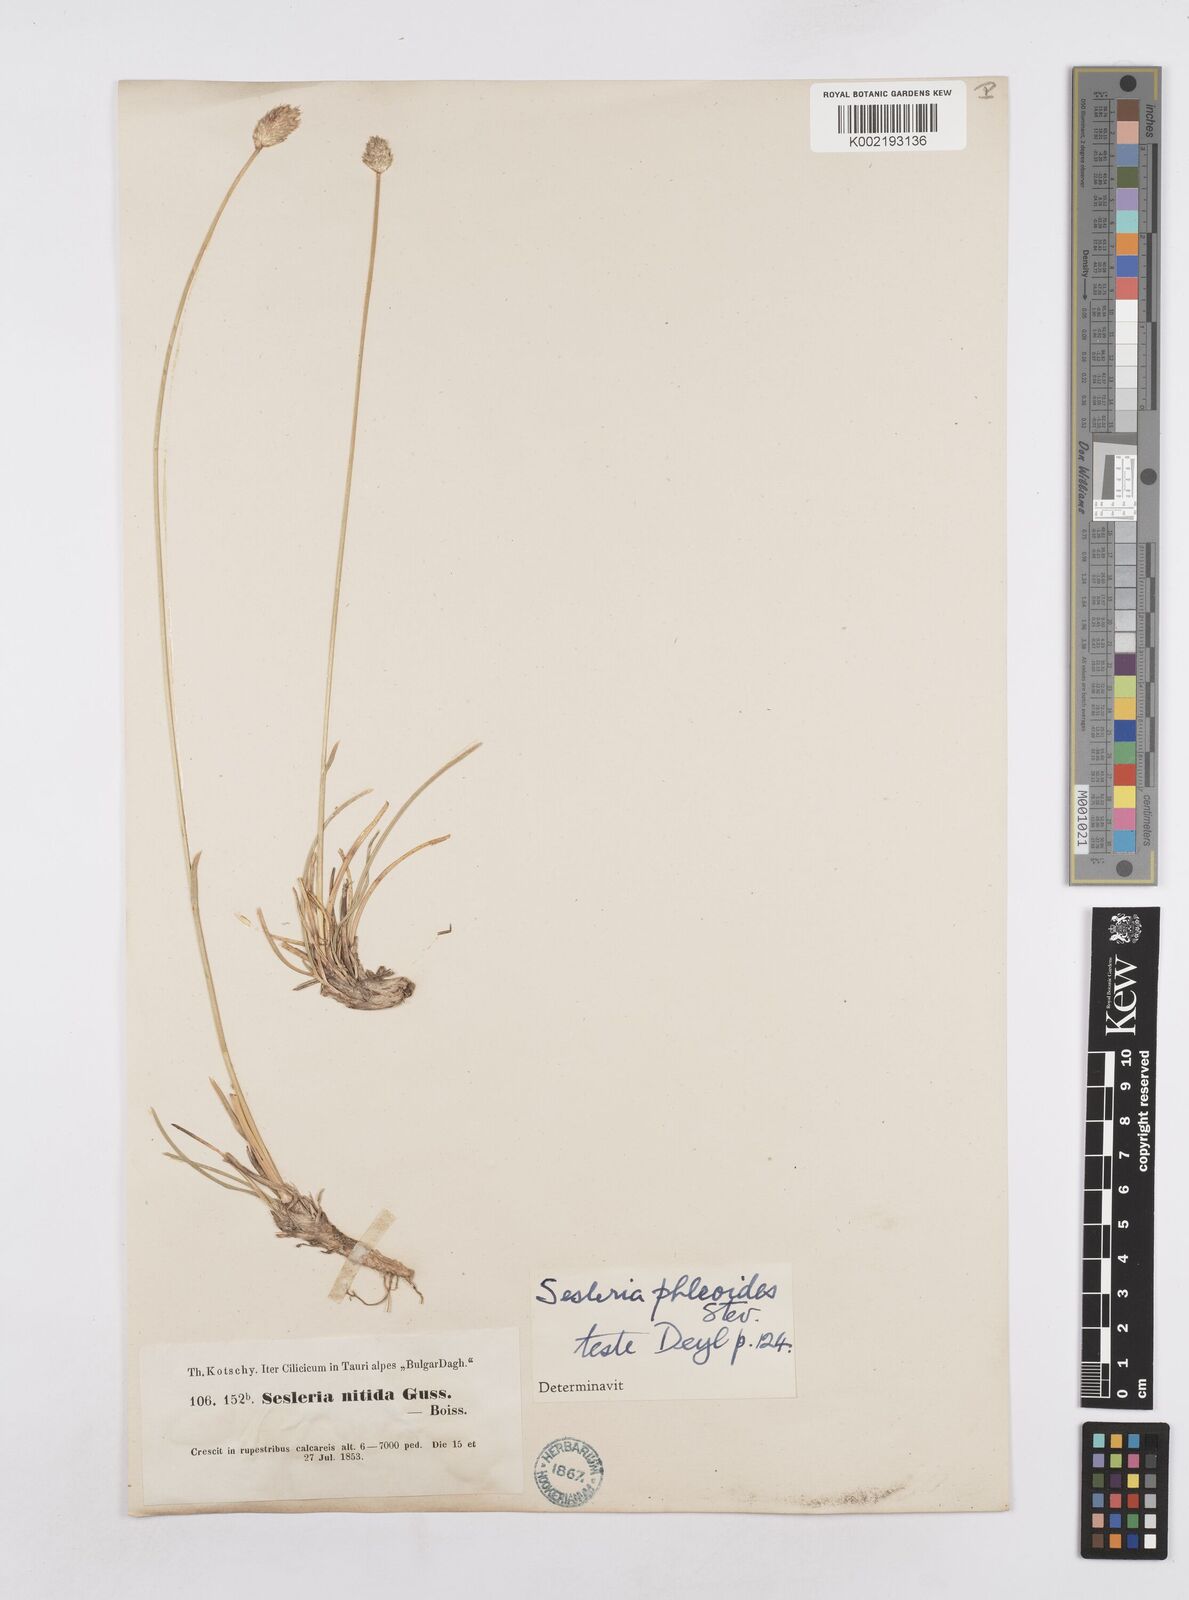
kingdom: Plantae
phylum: Tracheophyta
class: Liliopsida
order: Poales
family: Poaceae
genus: Sesleria
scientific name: Sesleria nitida
